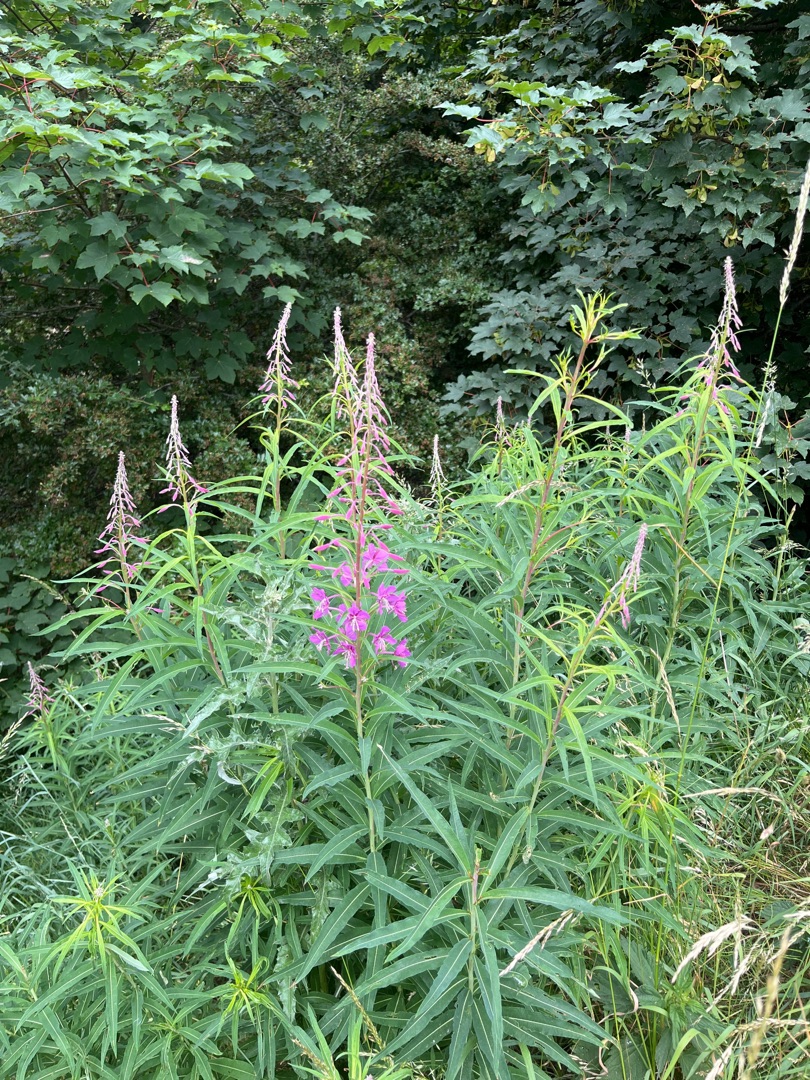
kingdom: Plantae
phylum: Tracheophyta
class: Magnoliopsida
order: Myrtales
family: Onagraceae
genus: Chamaenerion
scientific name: Chamaenerion angustifolium
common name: Gederams
